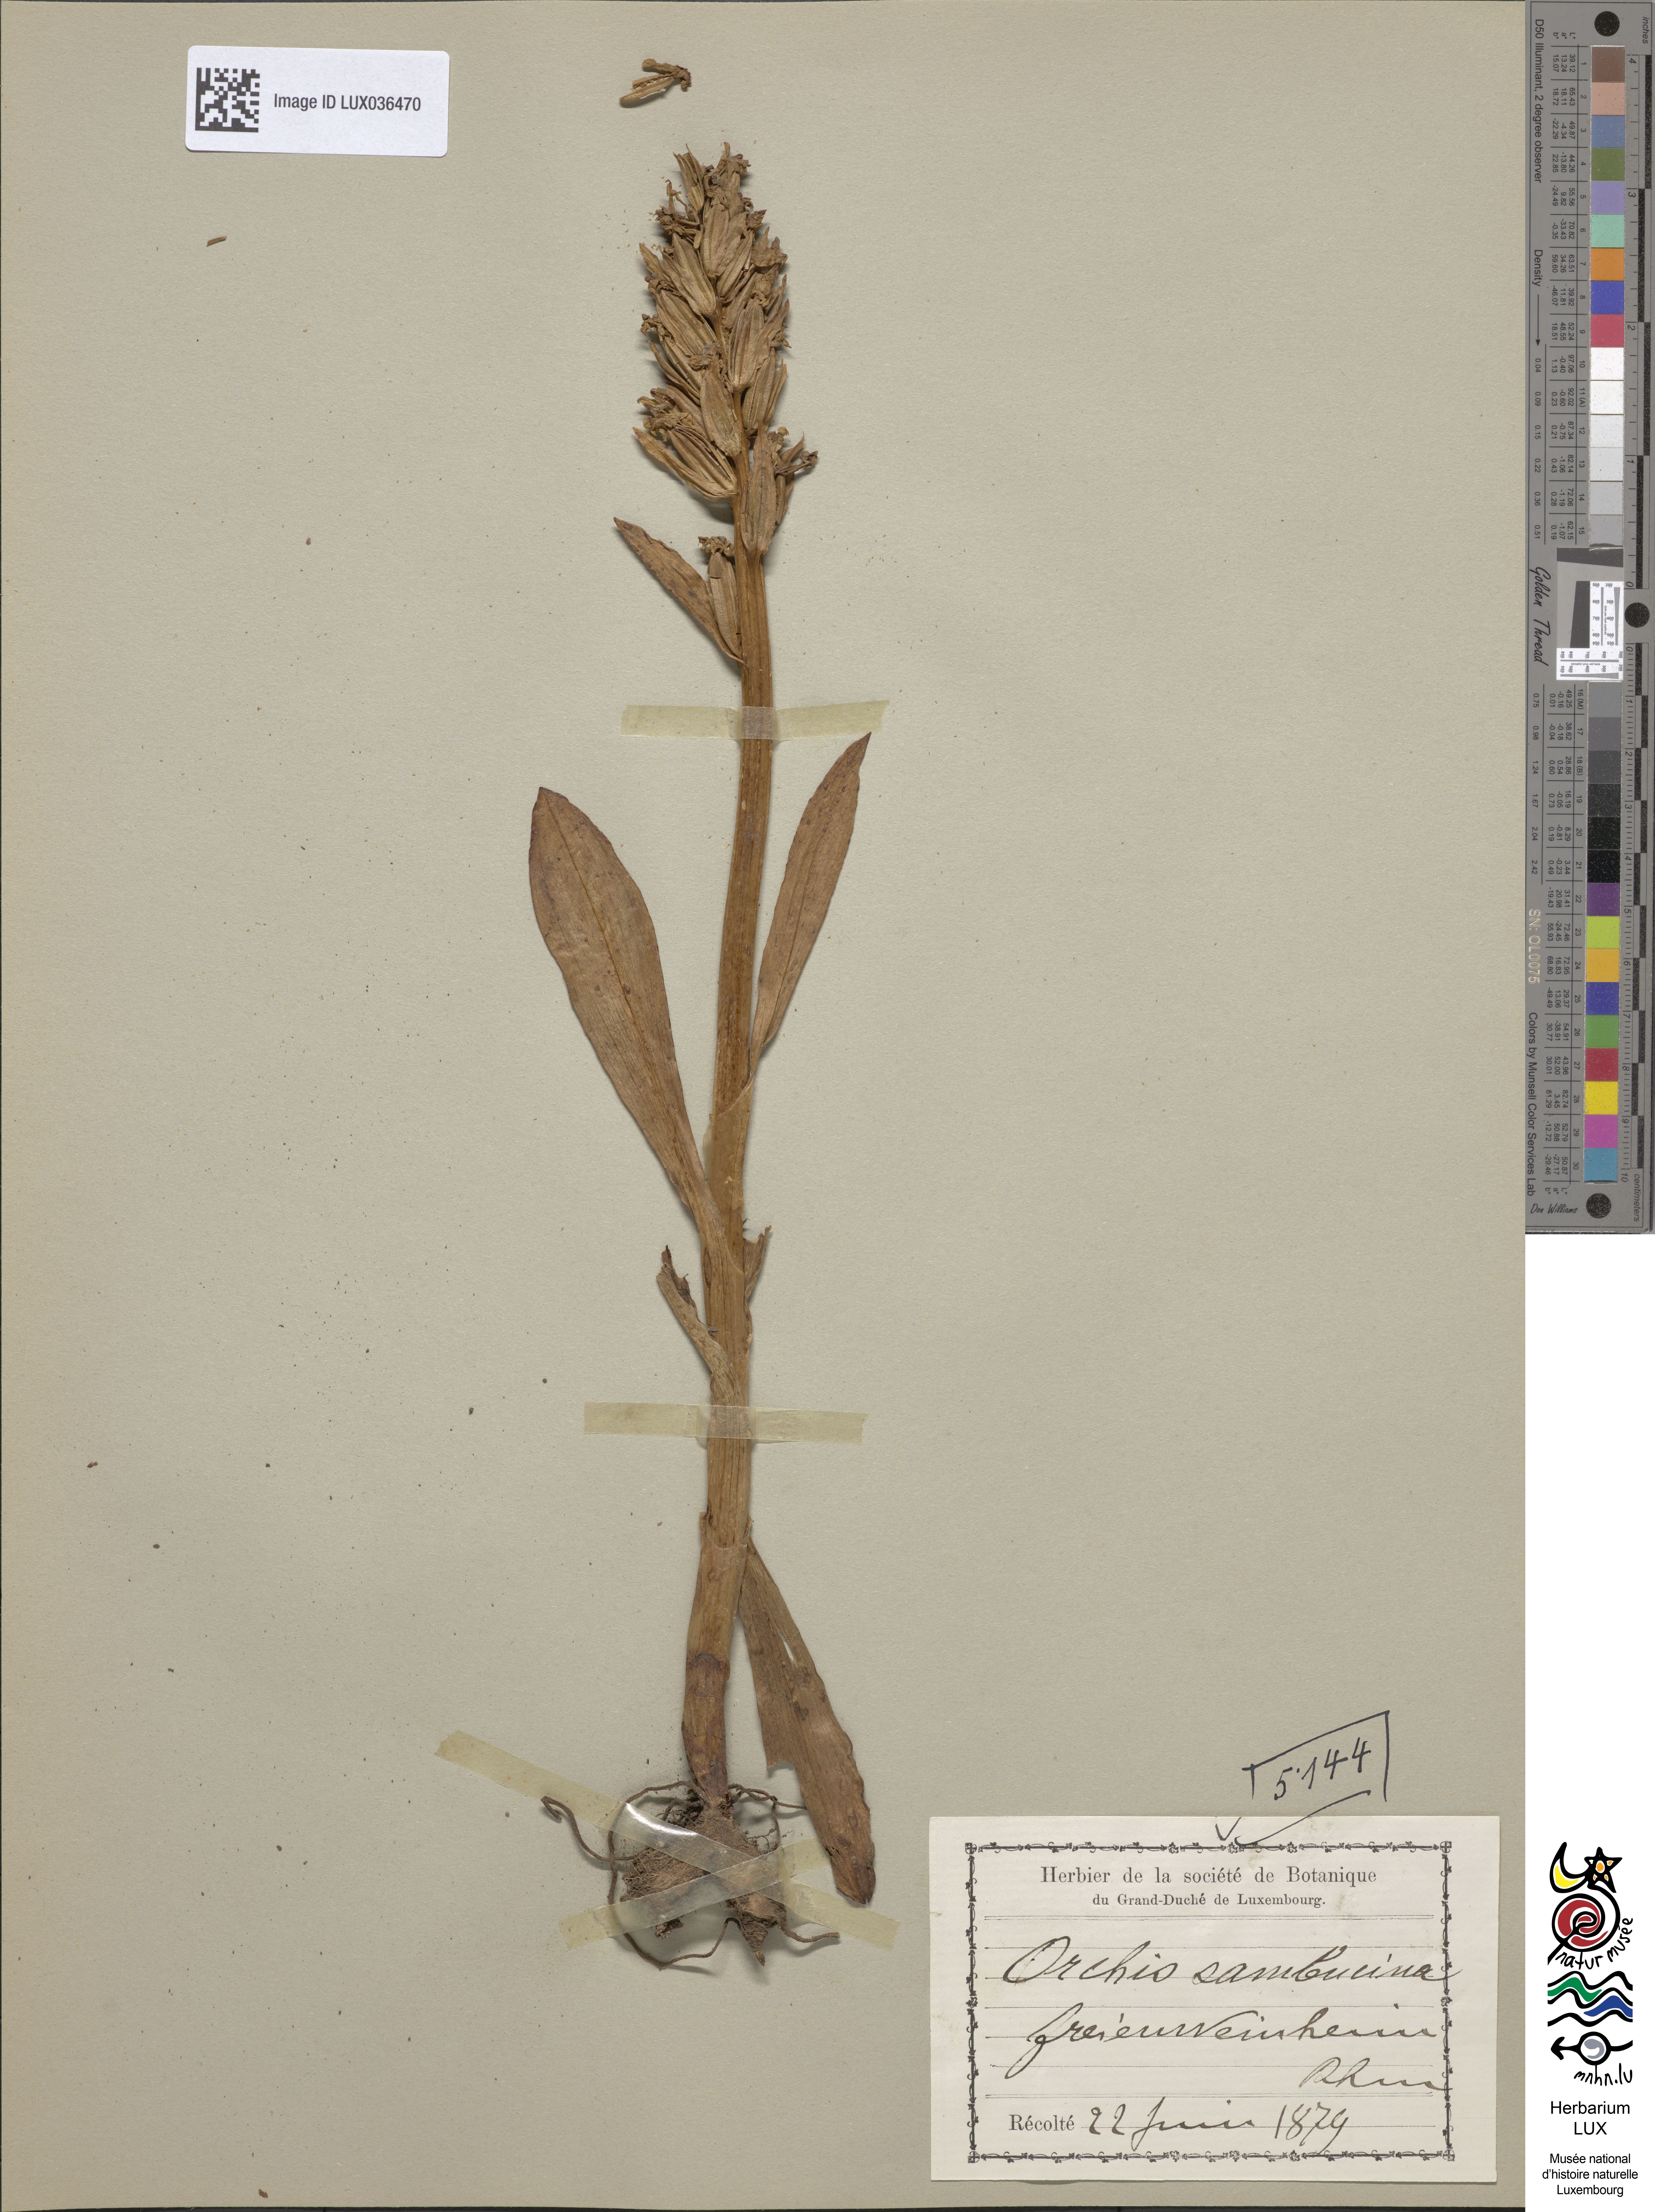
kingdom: Plantae
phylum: Tracheophyta
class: Liliopsida
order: Asparagales
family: Orchidaceae
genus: Dactylorhiza
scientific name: Dactylorhiza sambucina
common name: Elder-flowered orchid
